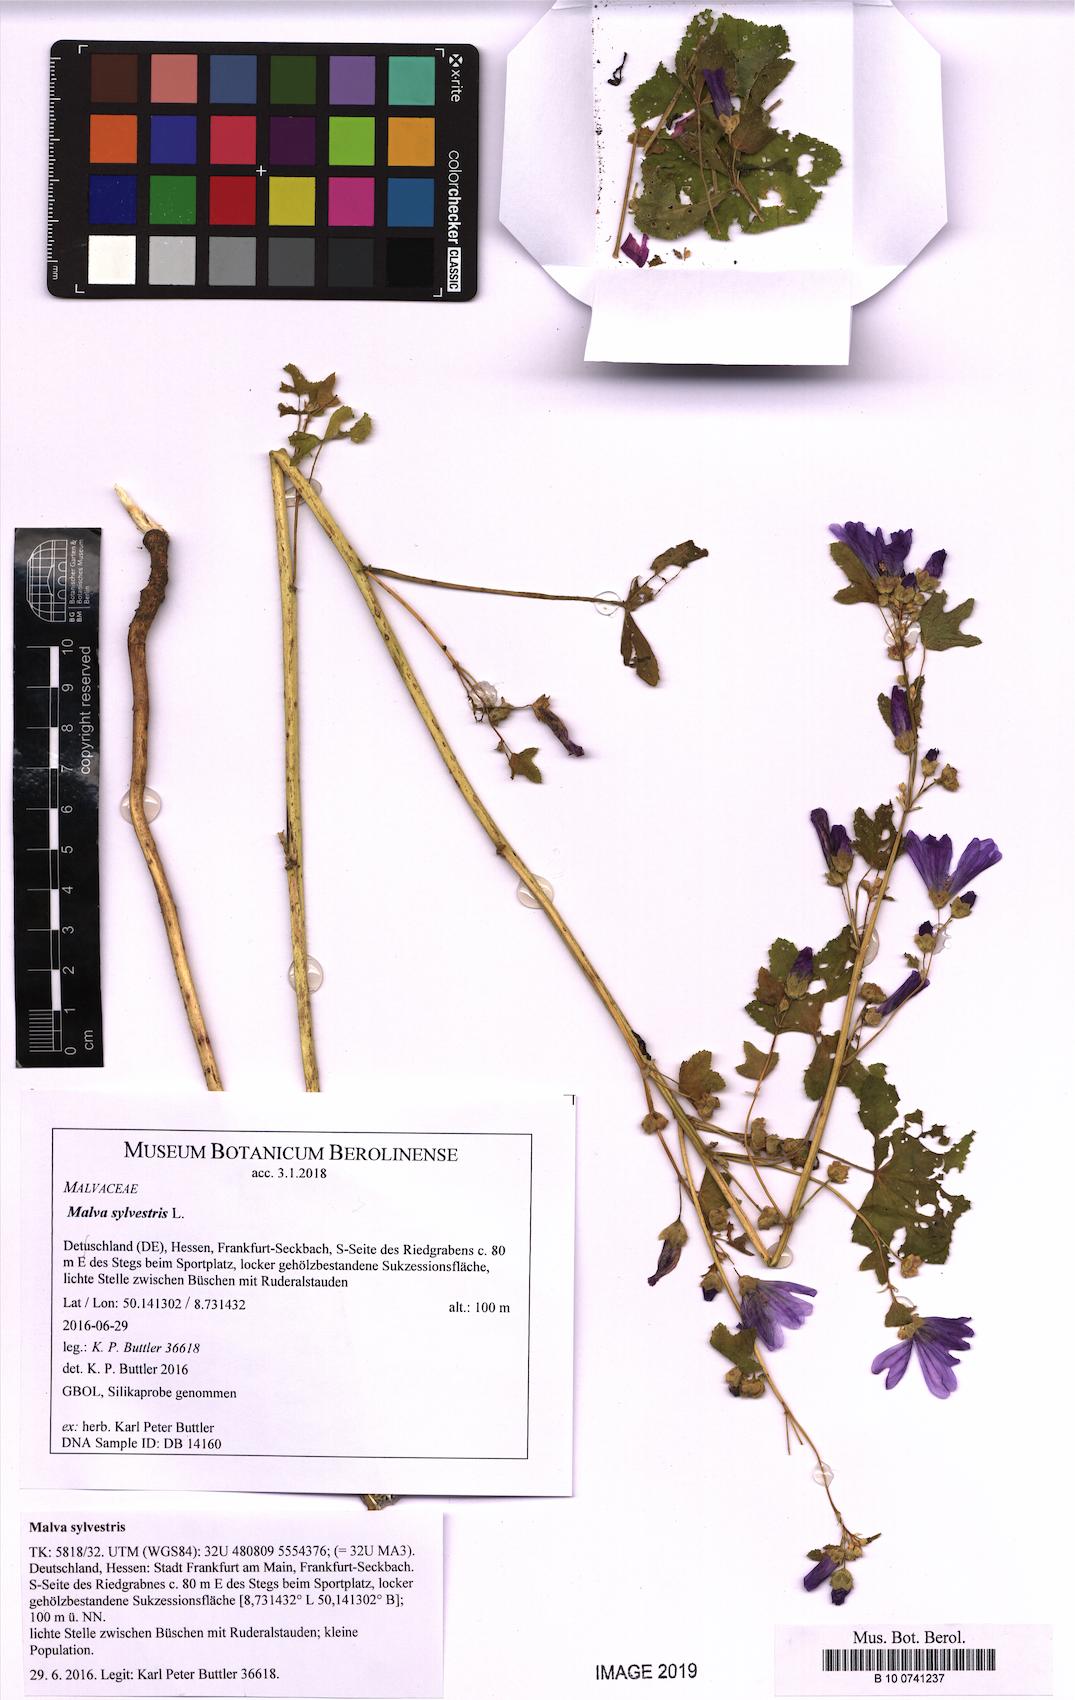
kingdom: Plantae
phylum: Tracheophyta
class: Magnoliopsida
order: Malvales
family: Malvaceae
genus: Malva
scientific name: Malva sylvestris
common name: Common mallow
